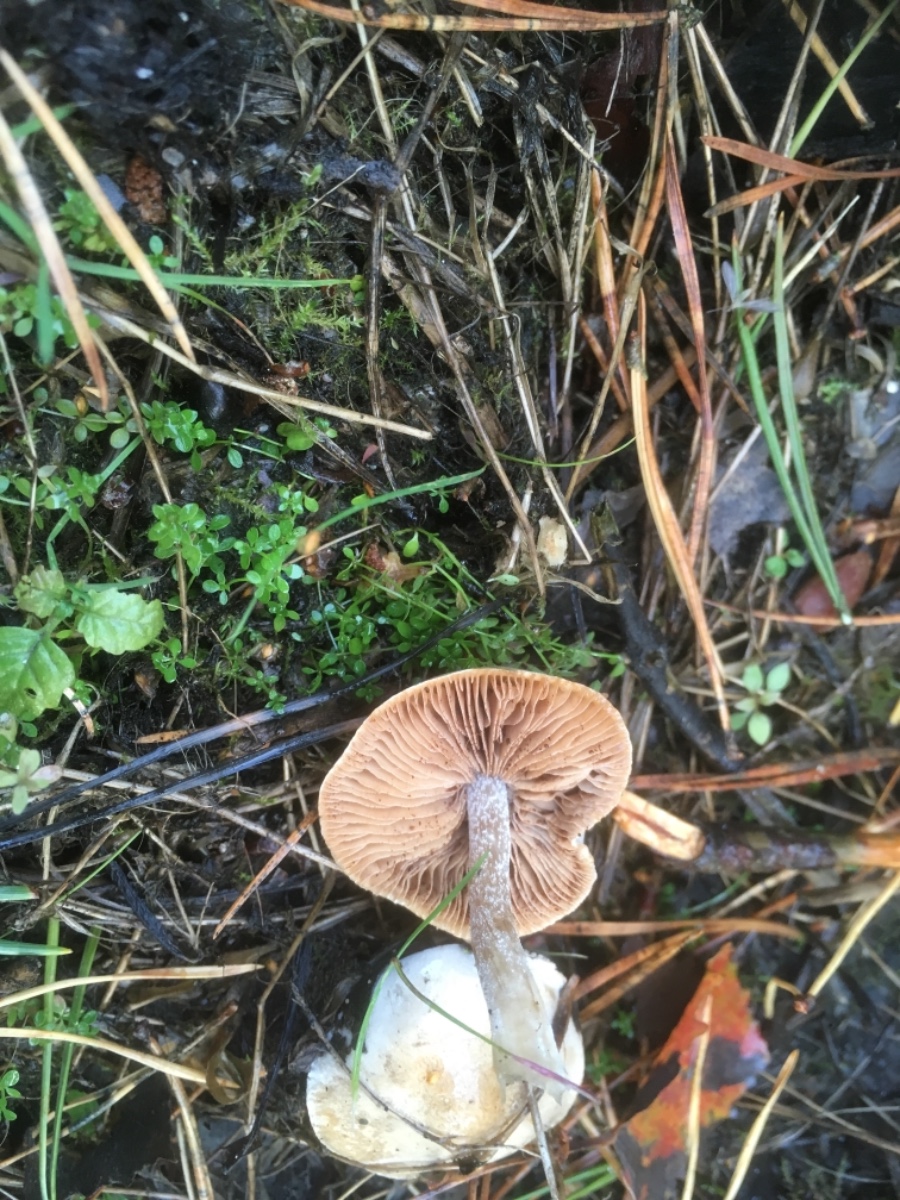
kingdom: Fungi
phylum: Basidiomycota
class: Agaricomycetes
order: Agaricales
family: Hymenogastraceae
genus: Hebeloma
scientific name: Hebeloma
